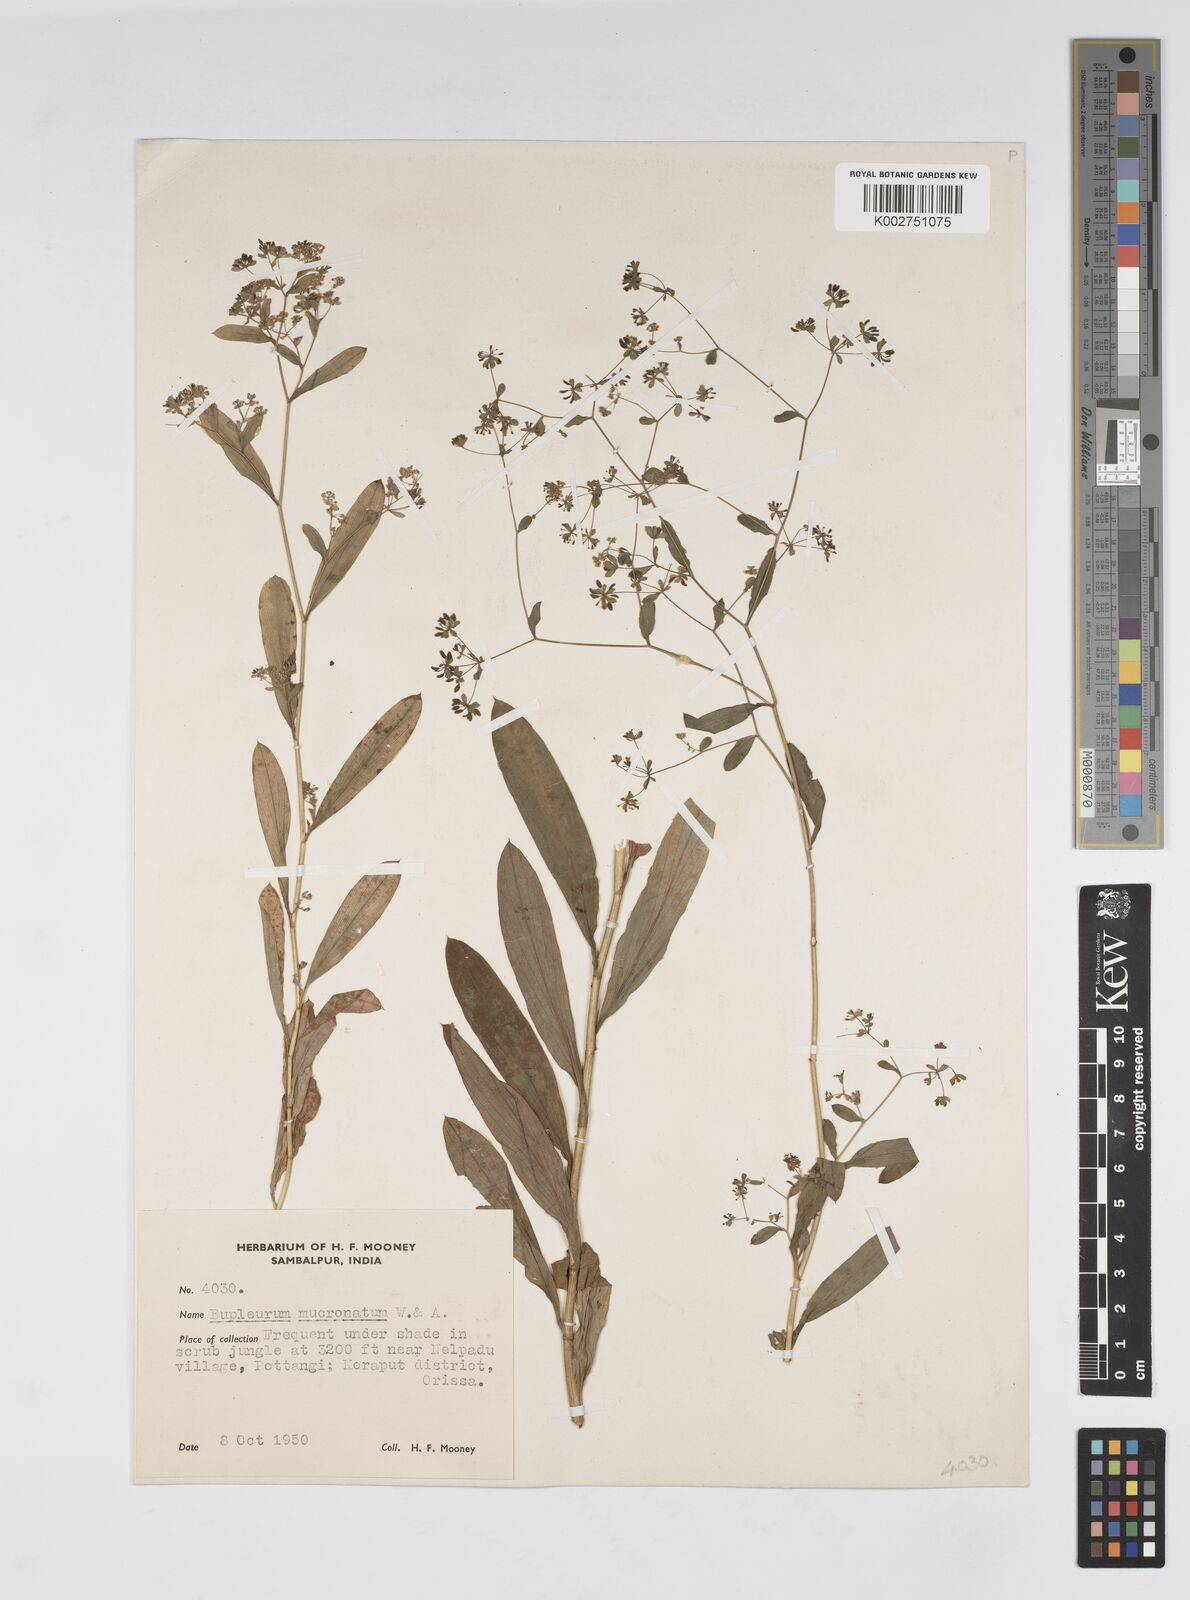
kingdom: Plantae
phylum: Tracheophyta
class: Magnoliopsida
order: Apiales
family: Apiaceae
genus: Bupleurum
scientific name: Bupleurum ramosissimum
